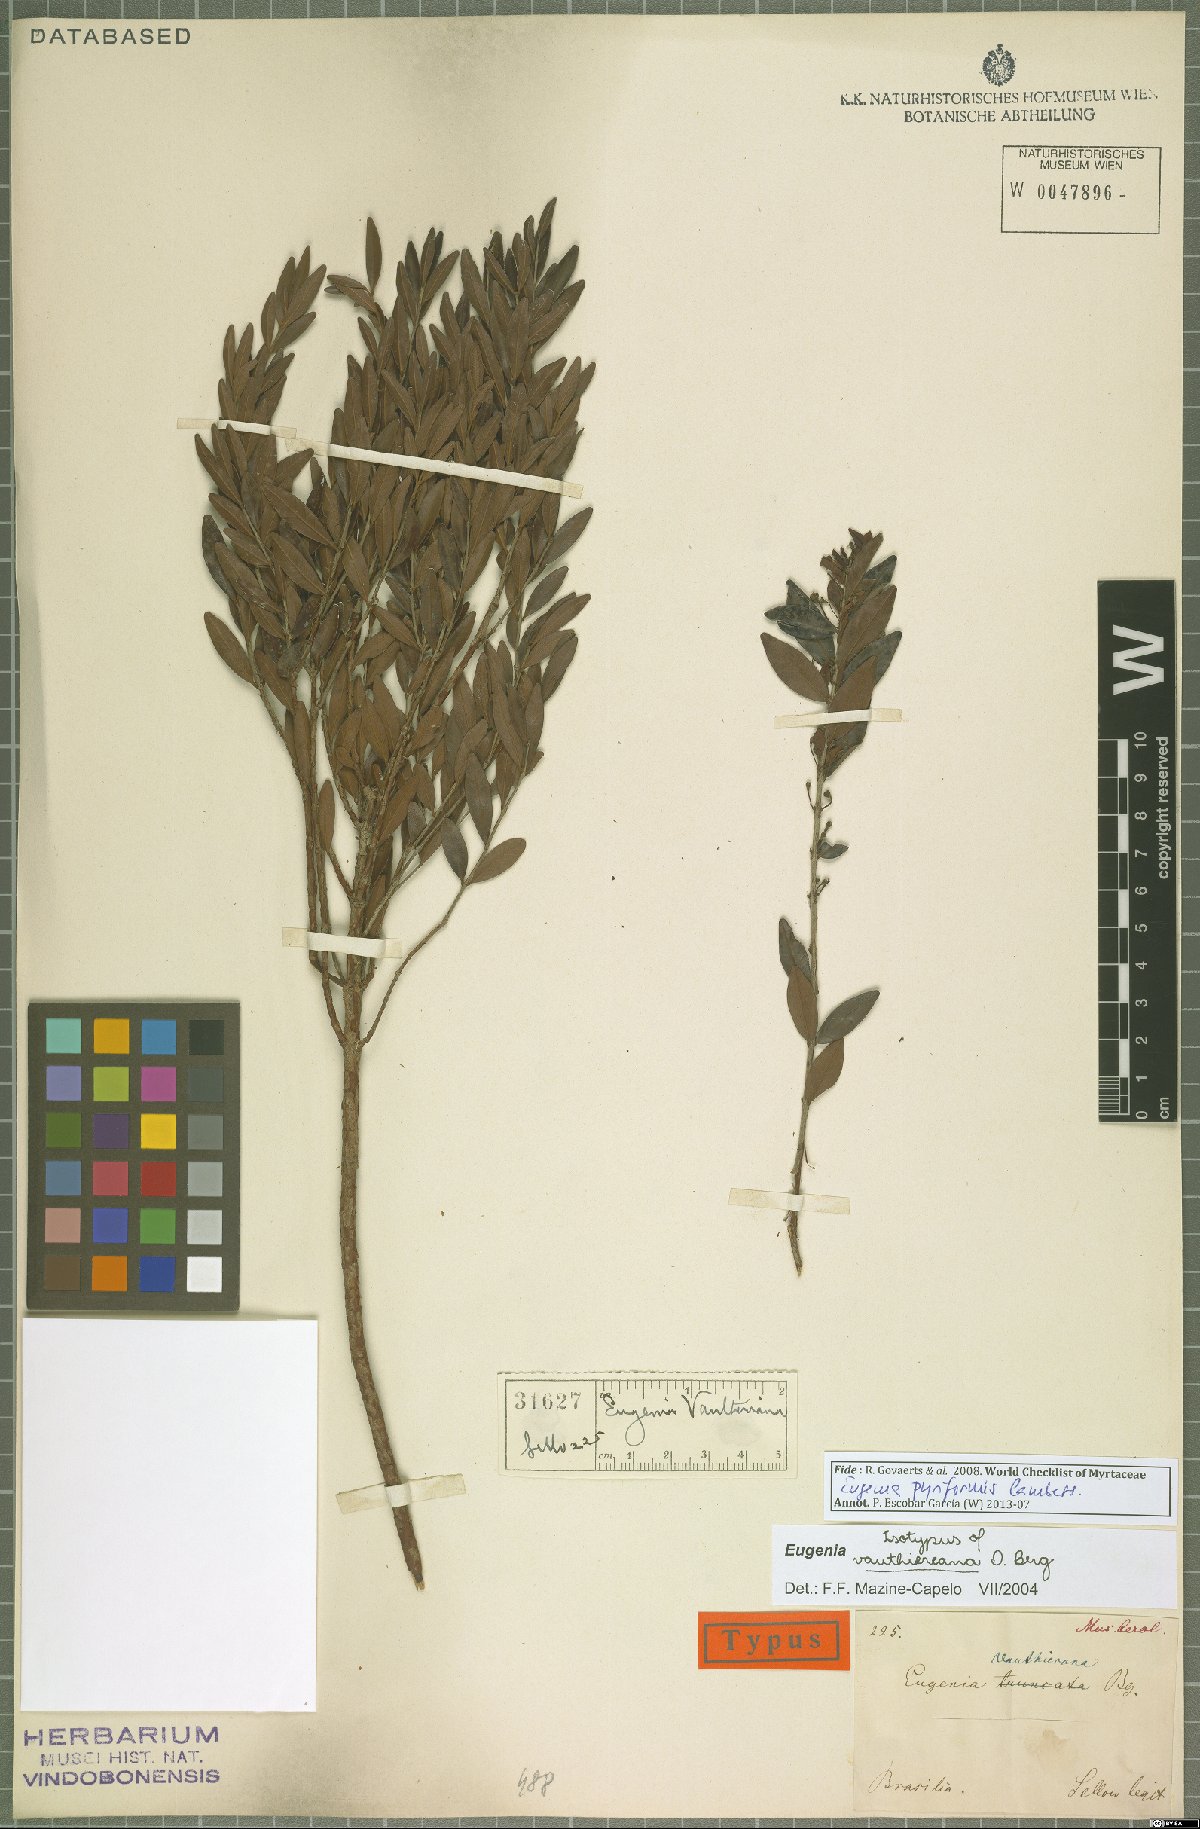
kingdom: Plantae
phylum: Tracheophyta
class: Magnoliopsida
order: Myrtales
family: Myrtaceae
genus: Eugenia
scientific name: Eugenia pyriformis
